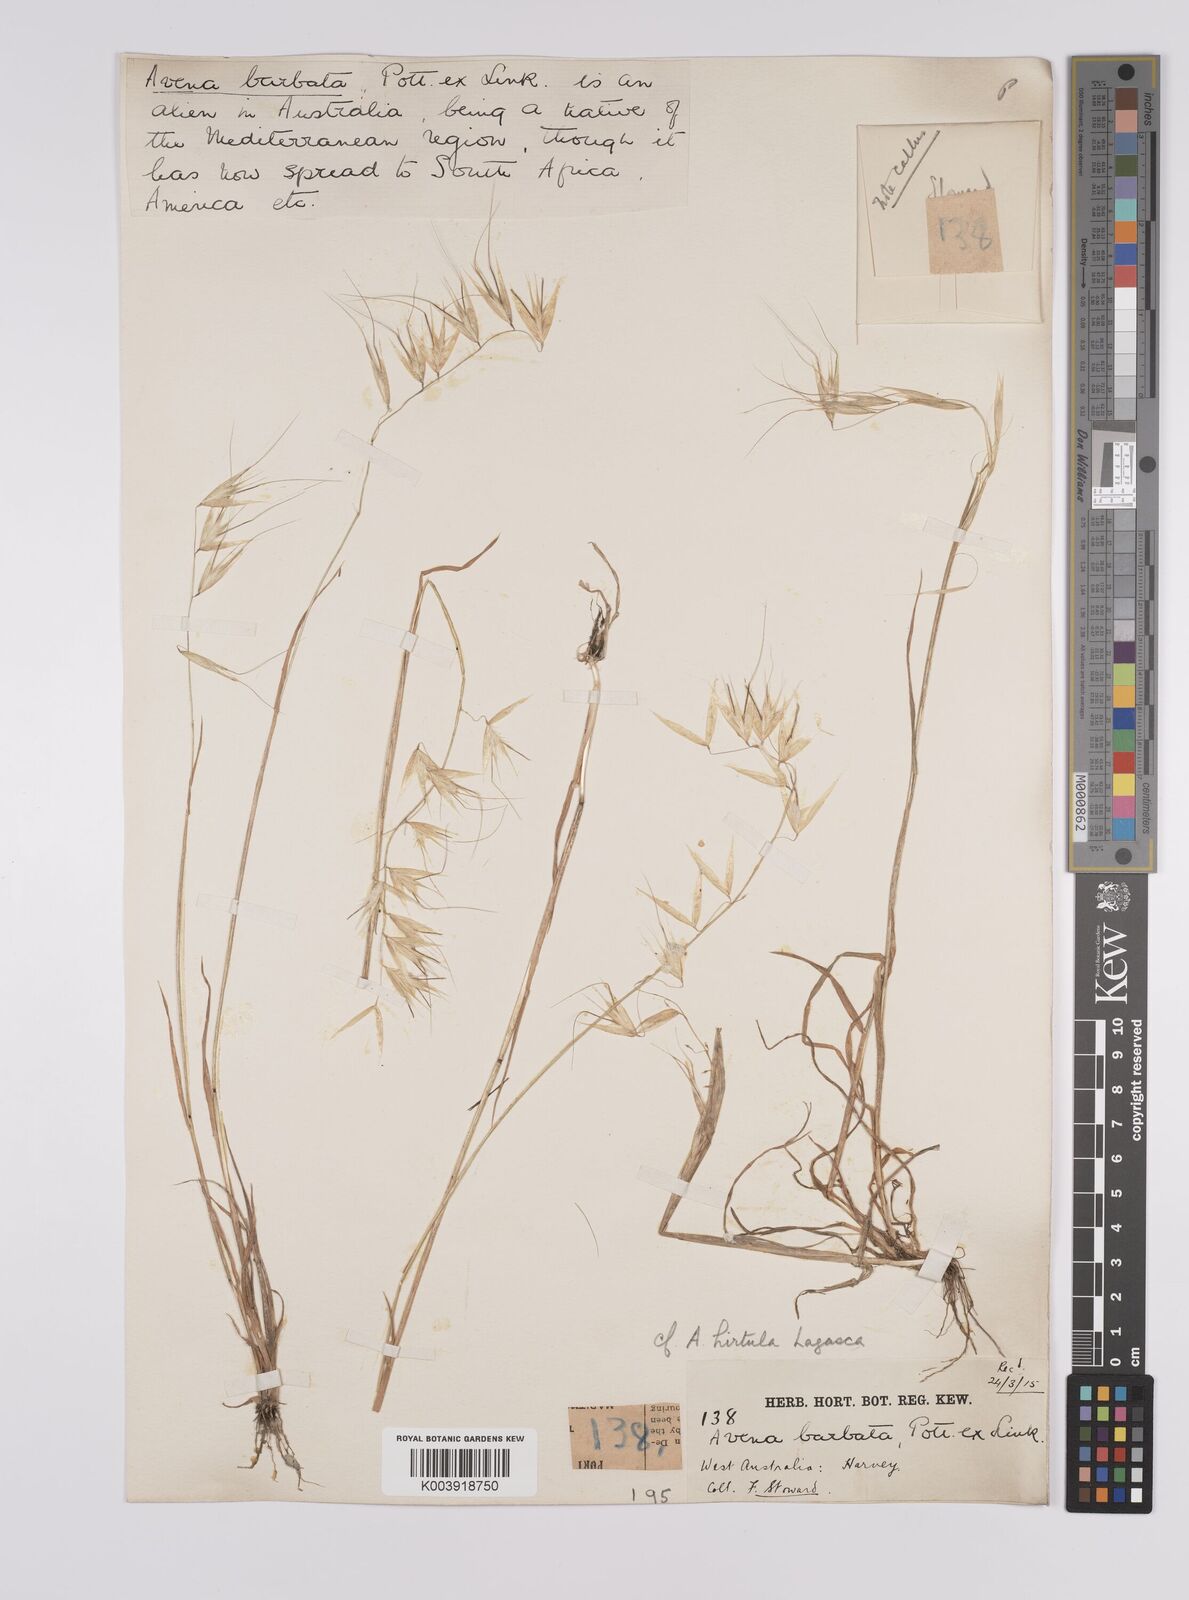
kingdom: Plantae
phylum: Tracheophyta
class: Liliopsida
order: Poales
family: Poaceae
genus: Avena
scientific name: Avena
